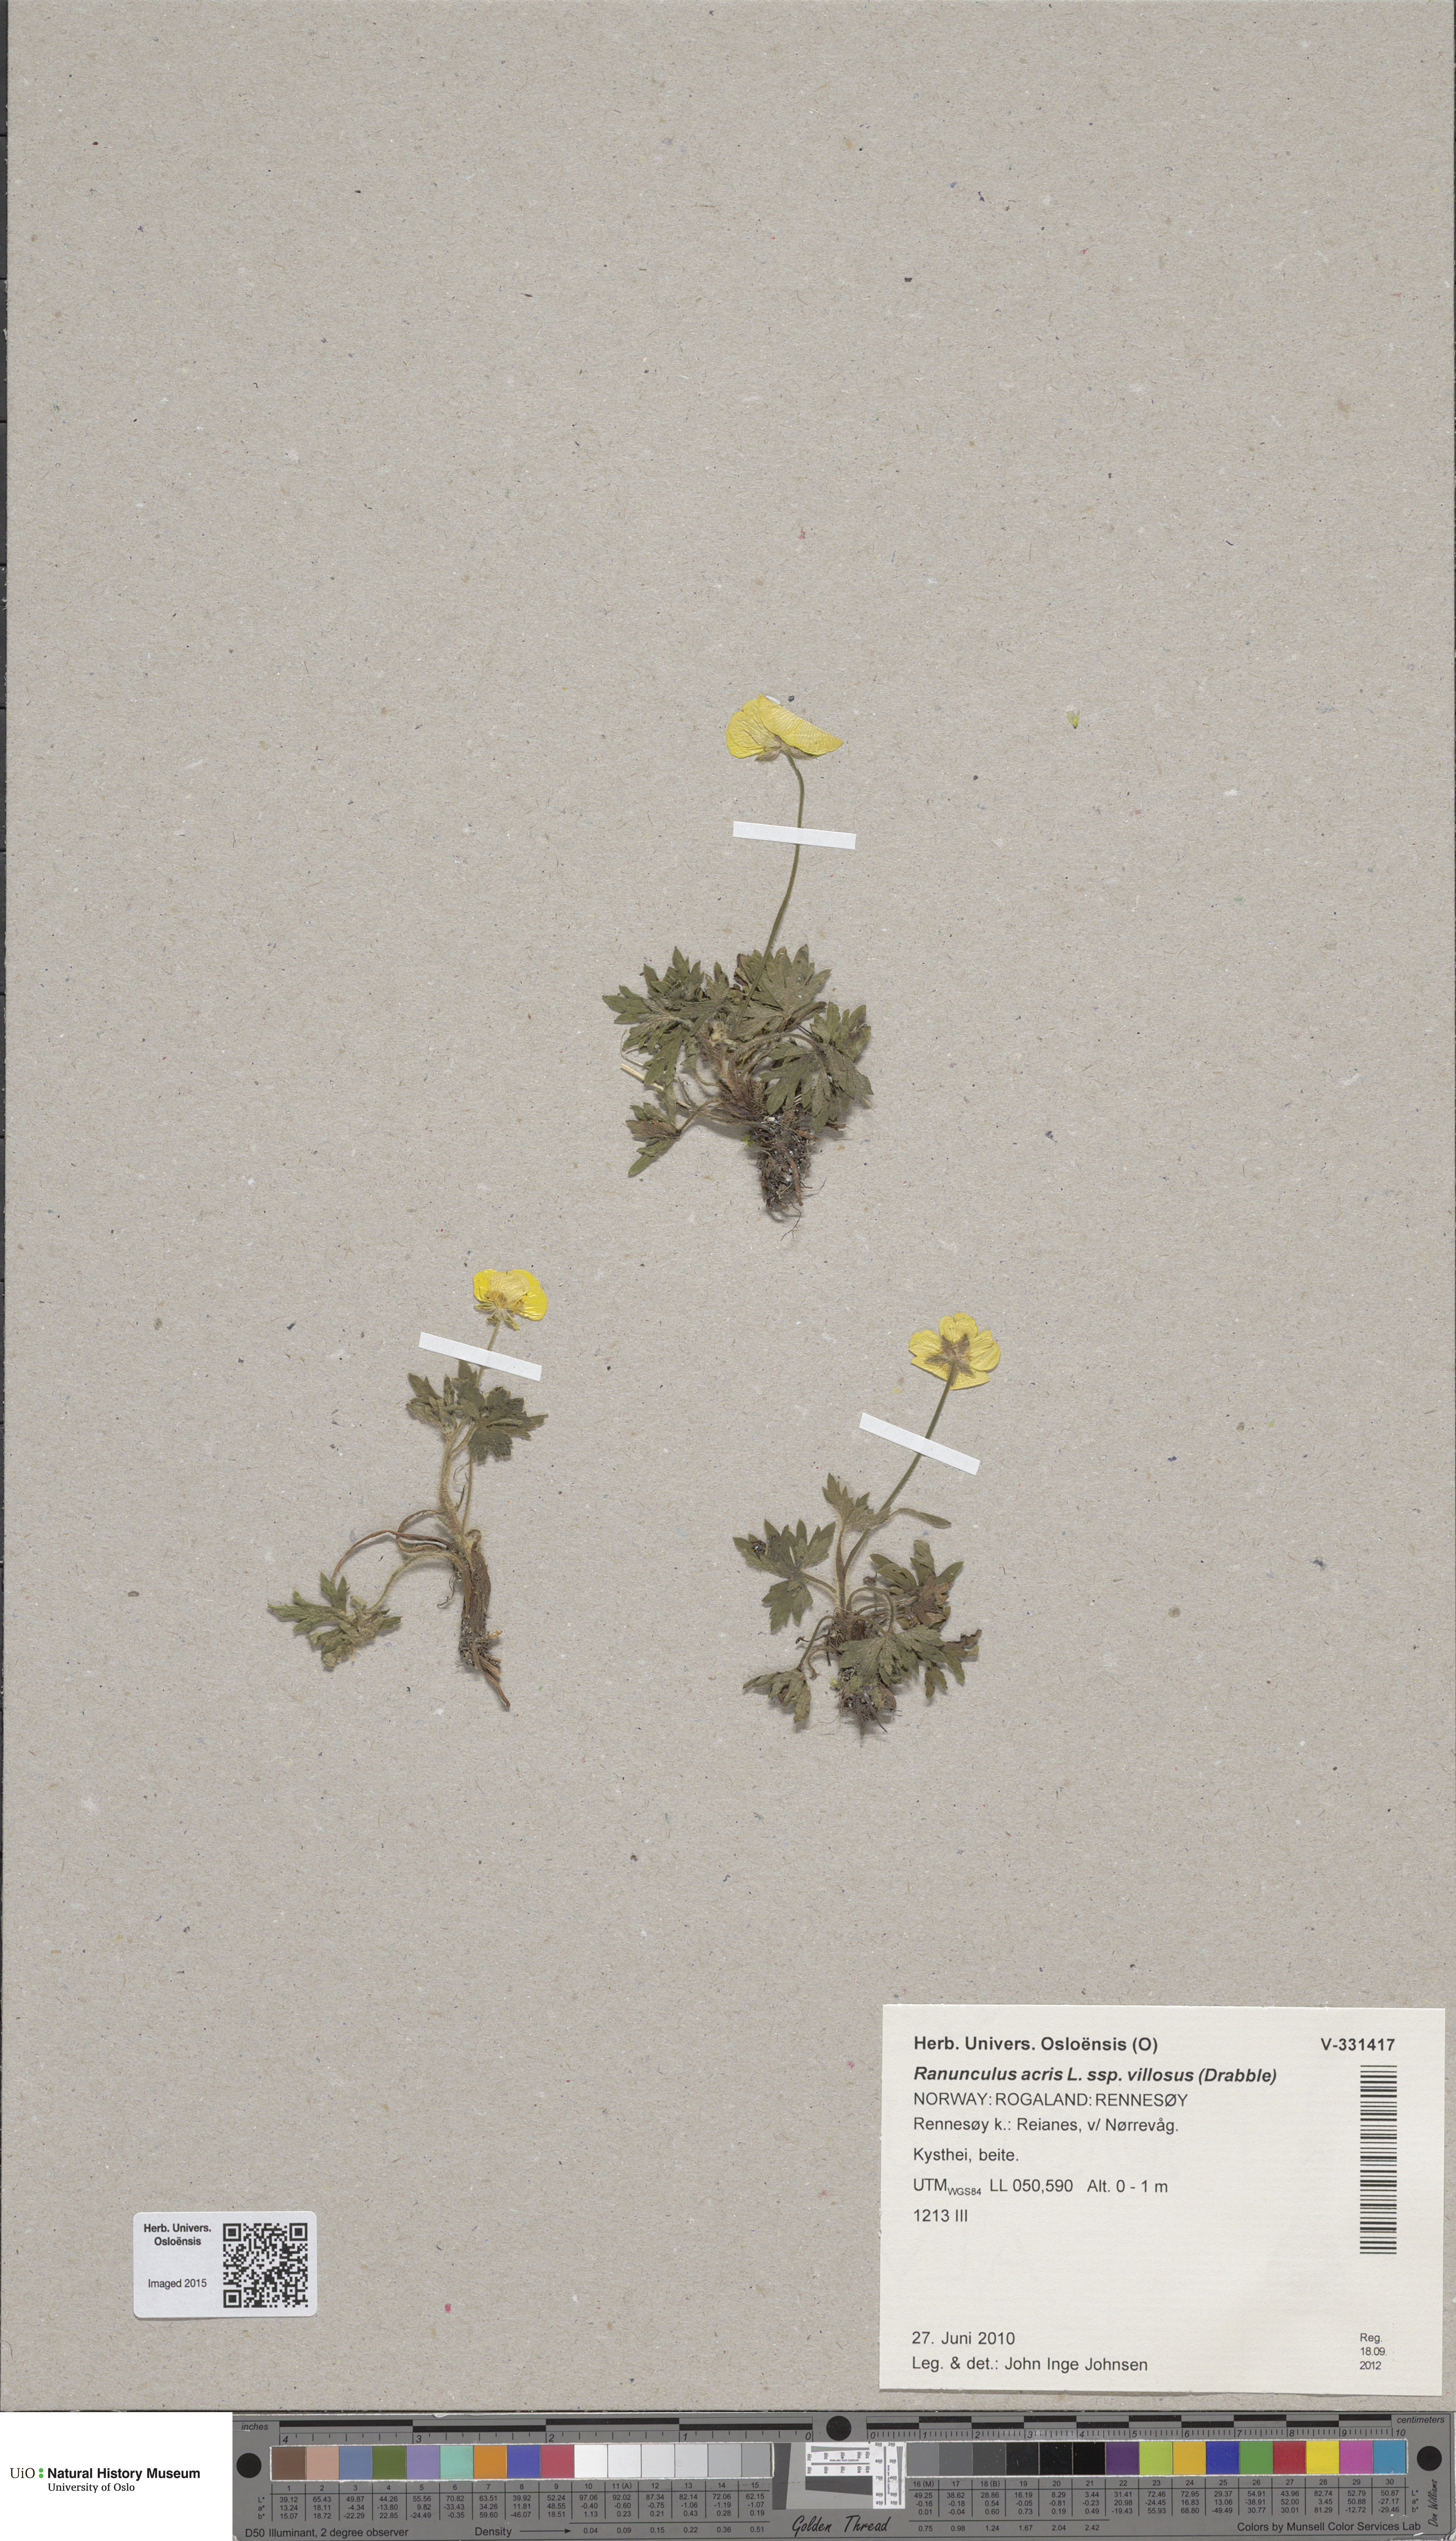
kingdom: Plantae
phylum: Tracheophyta
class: Magnoliopsida
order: Ranunculales
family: Ranunculaceae
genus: Ranunculus
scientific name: Ranunculus propinquus
